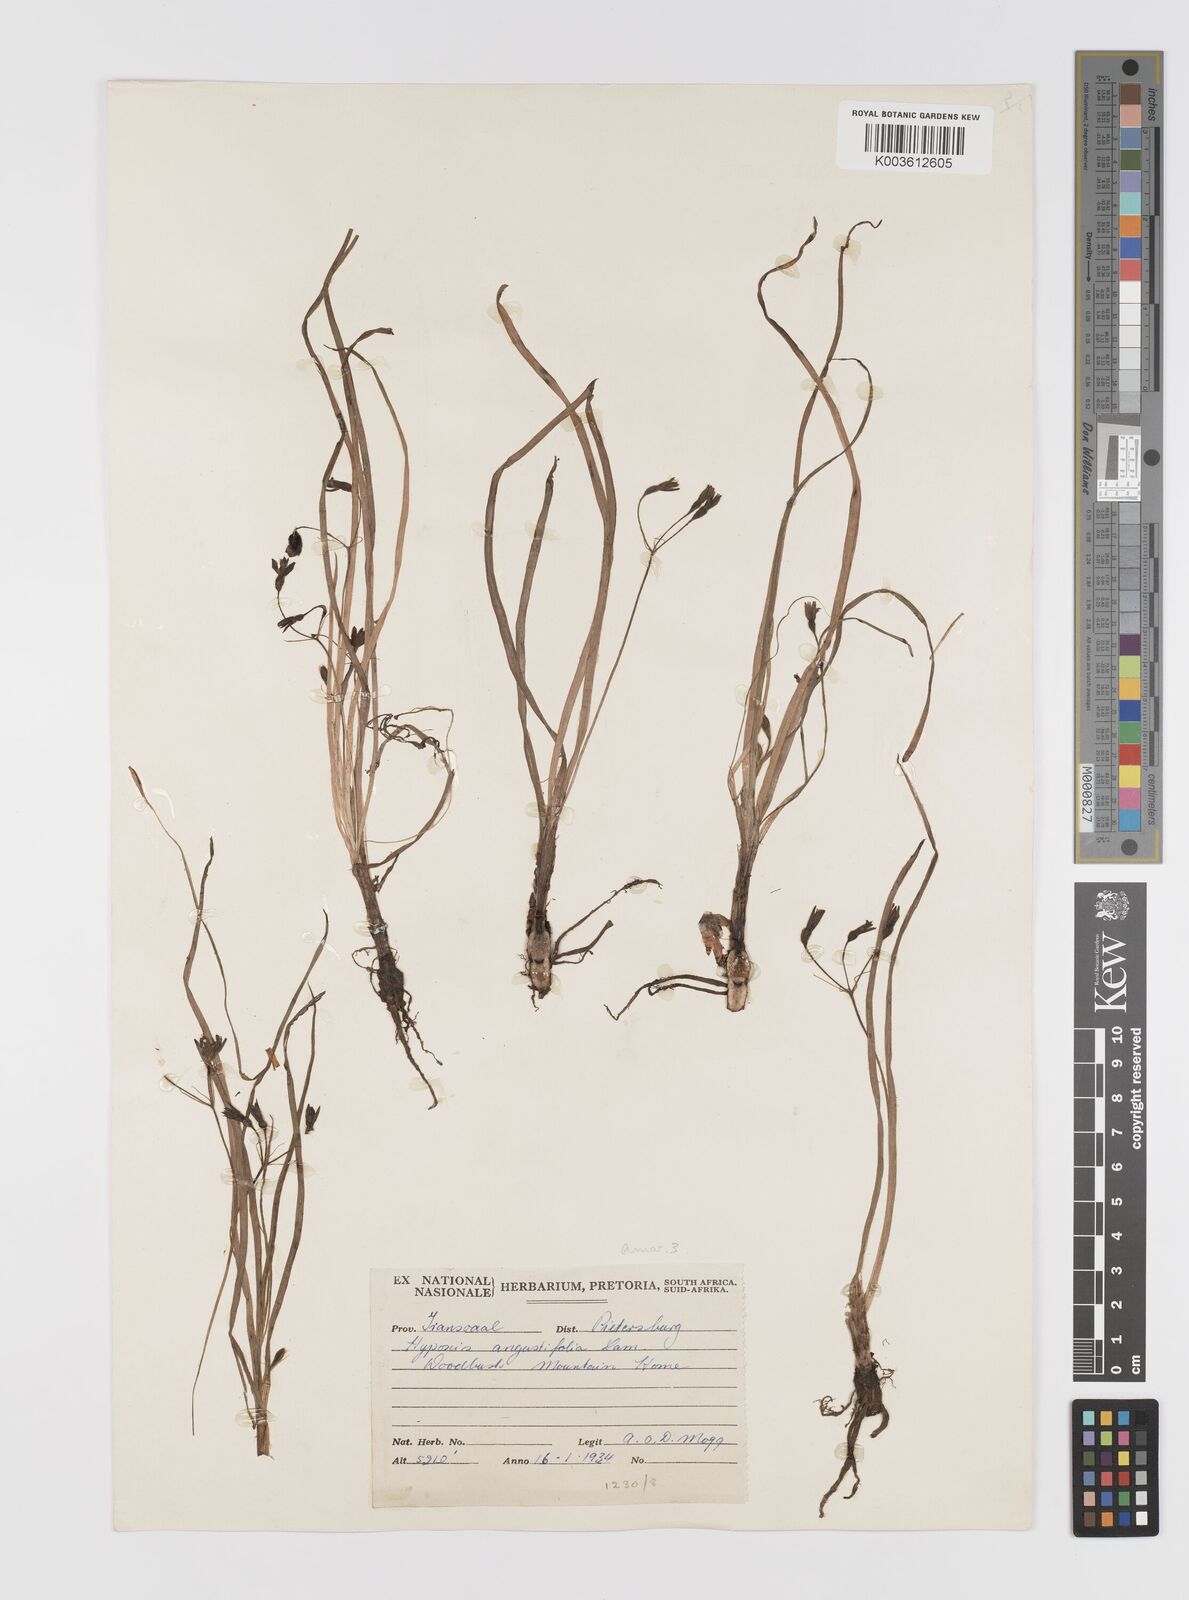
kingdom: Plantae
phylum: Tracheophyta
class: Liliopsida
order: Asparagales
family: Hypoxidaceae
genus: Hypoxis
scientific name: Hypoxis angustifolia
